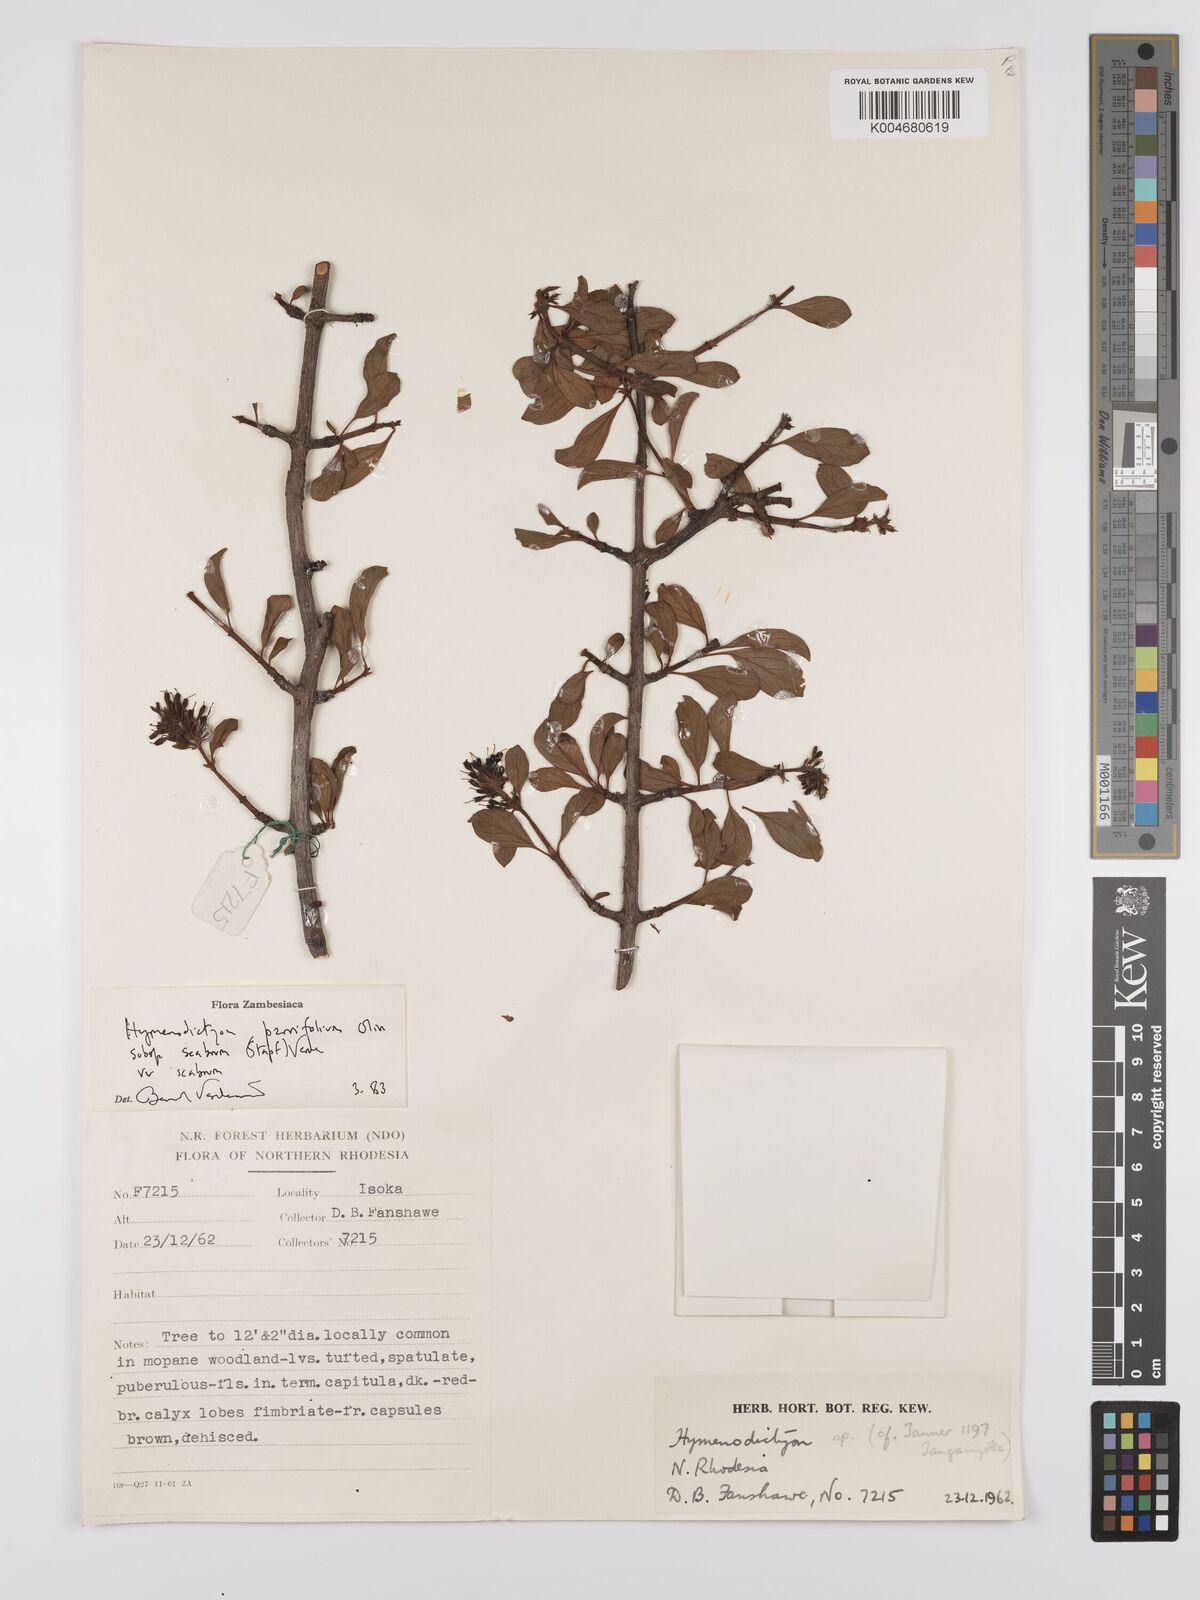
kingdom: Plantae
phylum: Tracheophyta
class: Magnoliopsida
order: Gentianales
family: Rubiaceae
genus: Hymenodictyon
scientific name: Hymenodictyon scabrum
